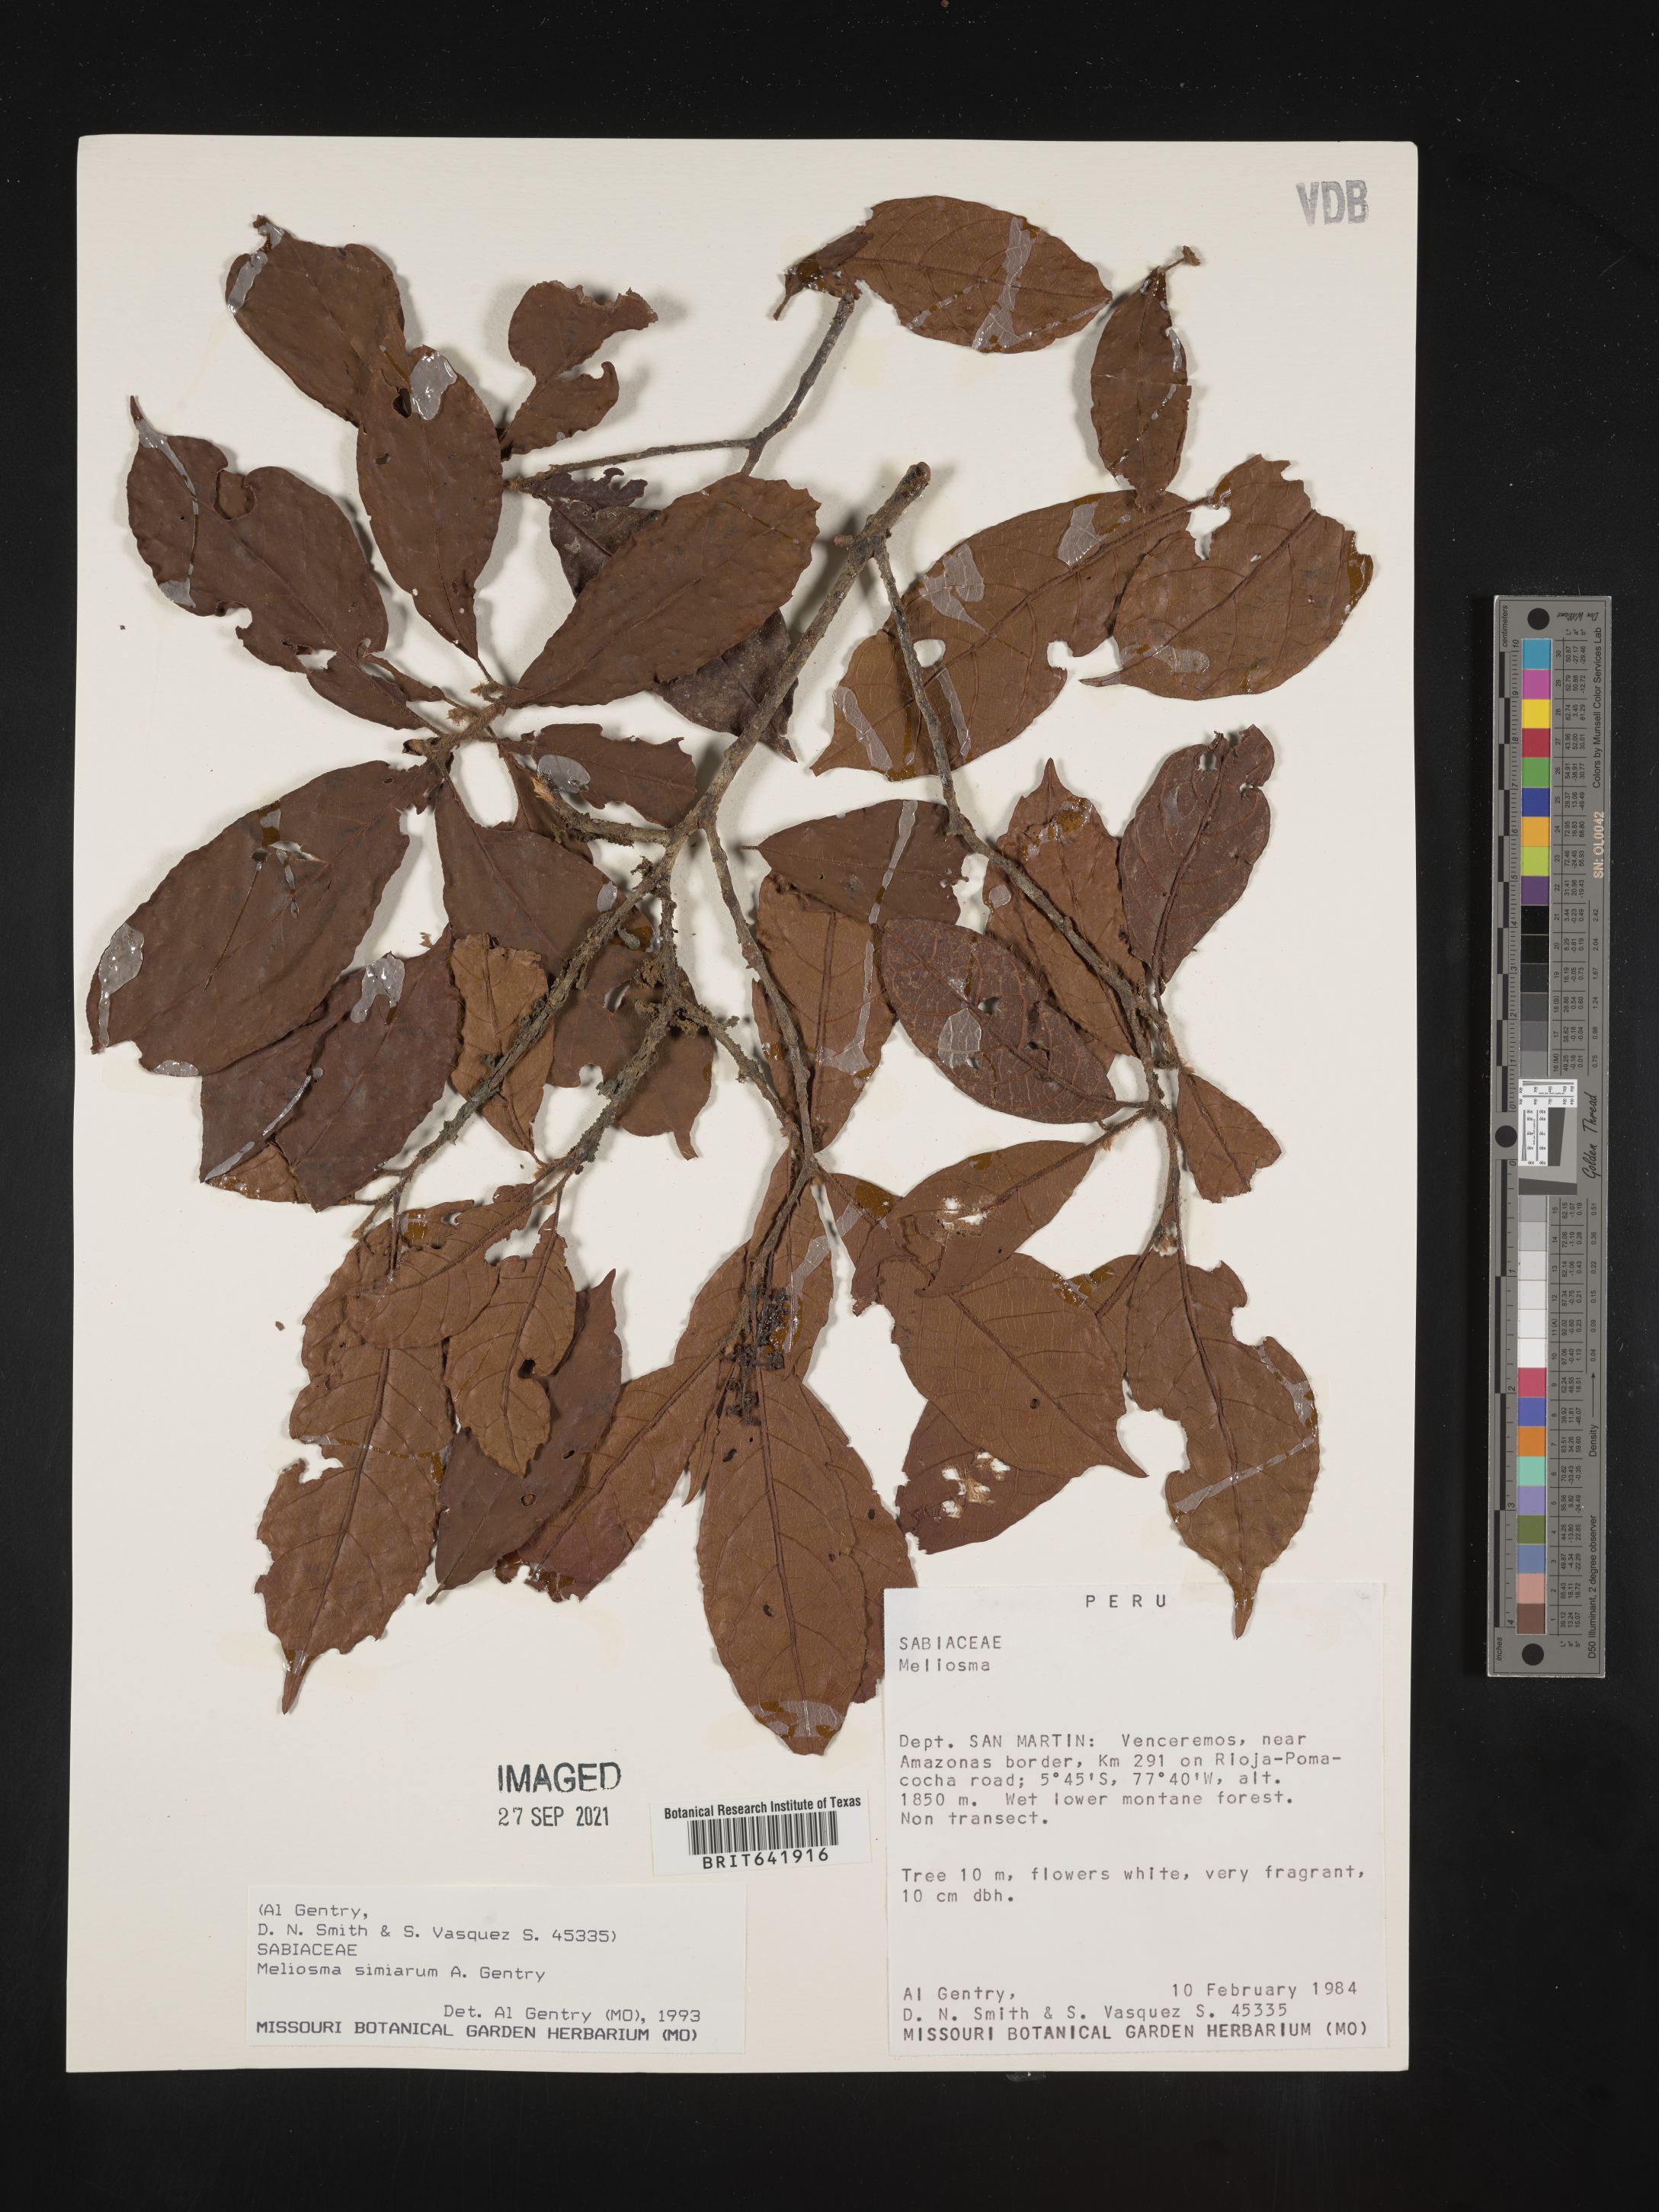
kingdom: Plantae
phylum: Tracheophyta
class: Magnoliopsida
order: Proteales
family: Sabiaceae
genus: Meliosma
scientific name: Meliosma
